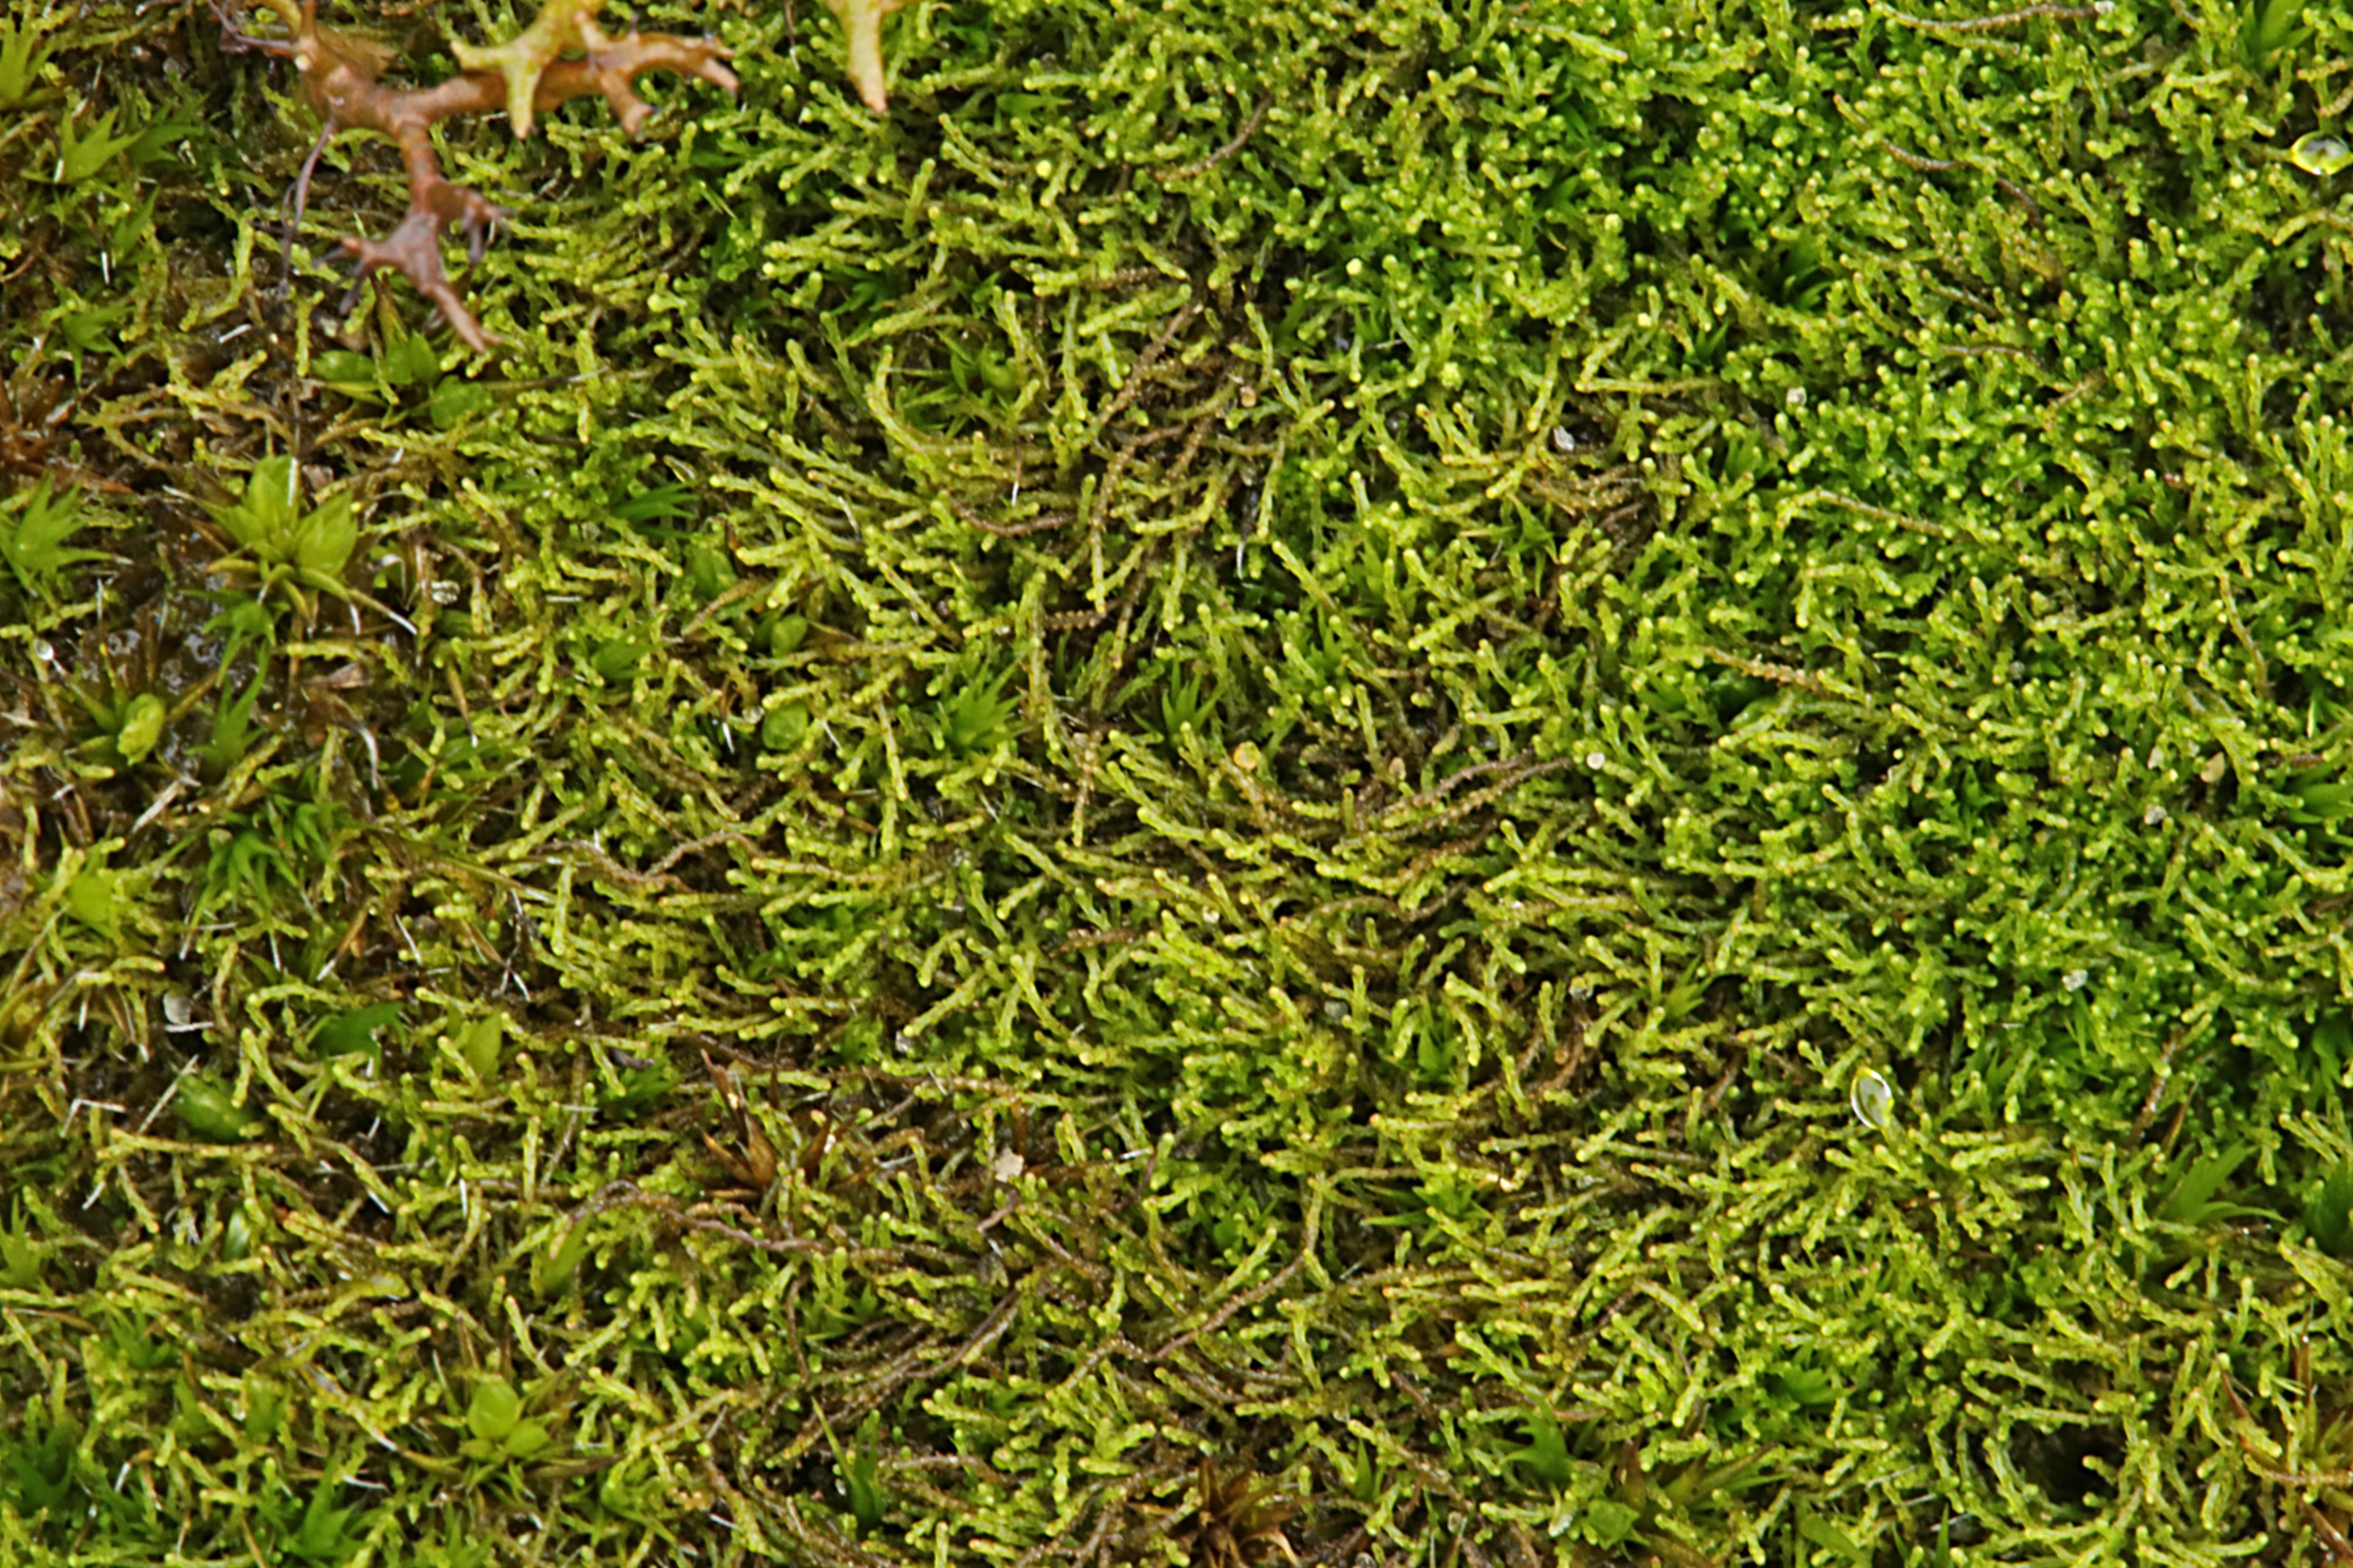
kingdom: Plantae
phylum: Marchantiophyta
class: Jungermanniopsida
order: Jungermanniales
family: Cephaloziellaceae
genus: Cephaloziella
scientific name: Cephaloziella divaricata
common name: Mørk dværgtråd (varietet)
